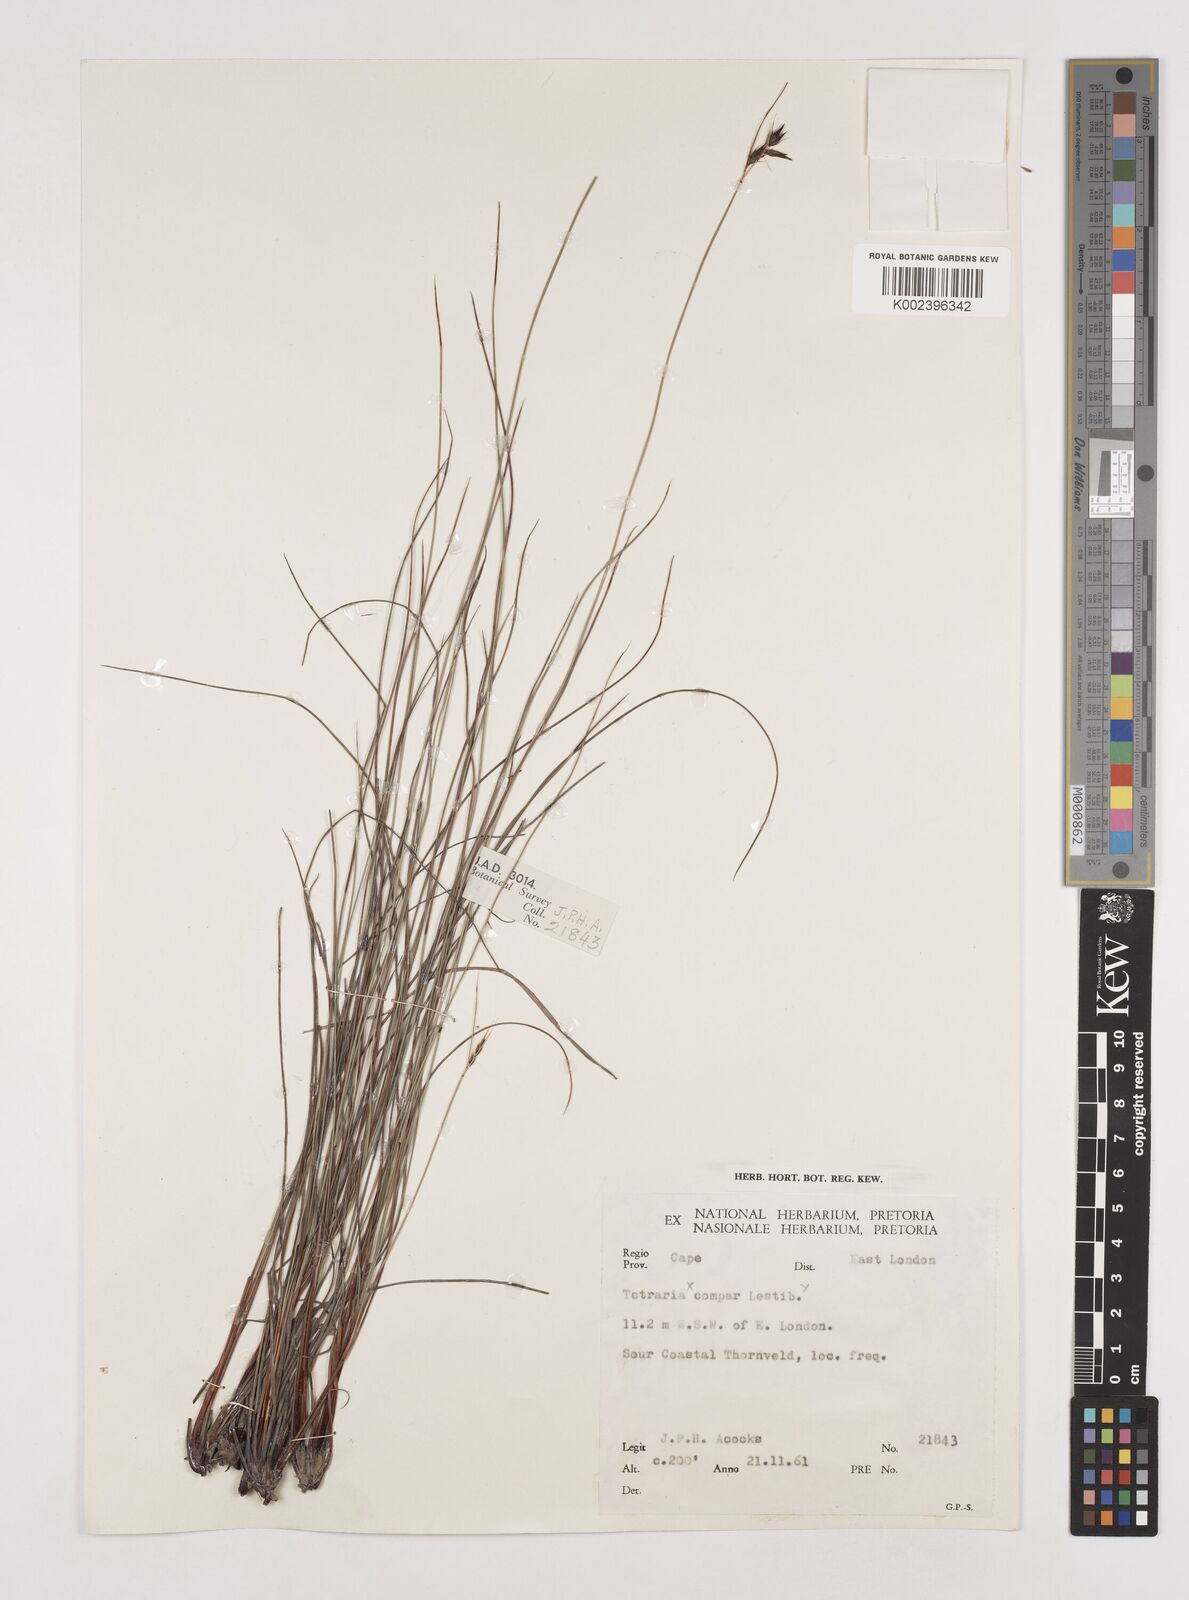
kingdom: Plantae
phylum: Tracheophyta
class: Liliopsida
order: Poales
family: Cyperaceae
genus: Schoenus
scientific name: Schoenus cuspidatus
